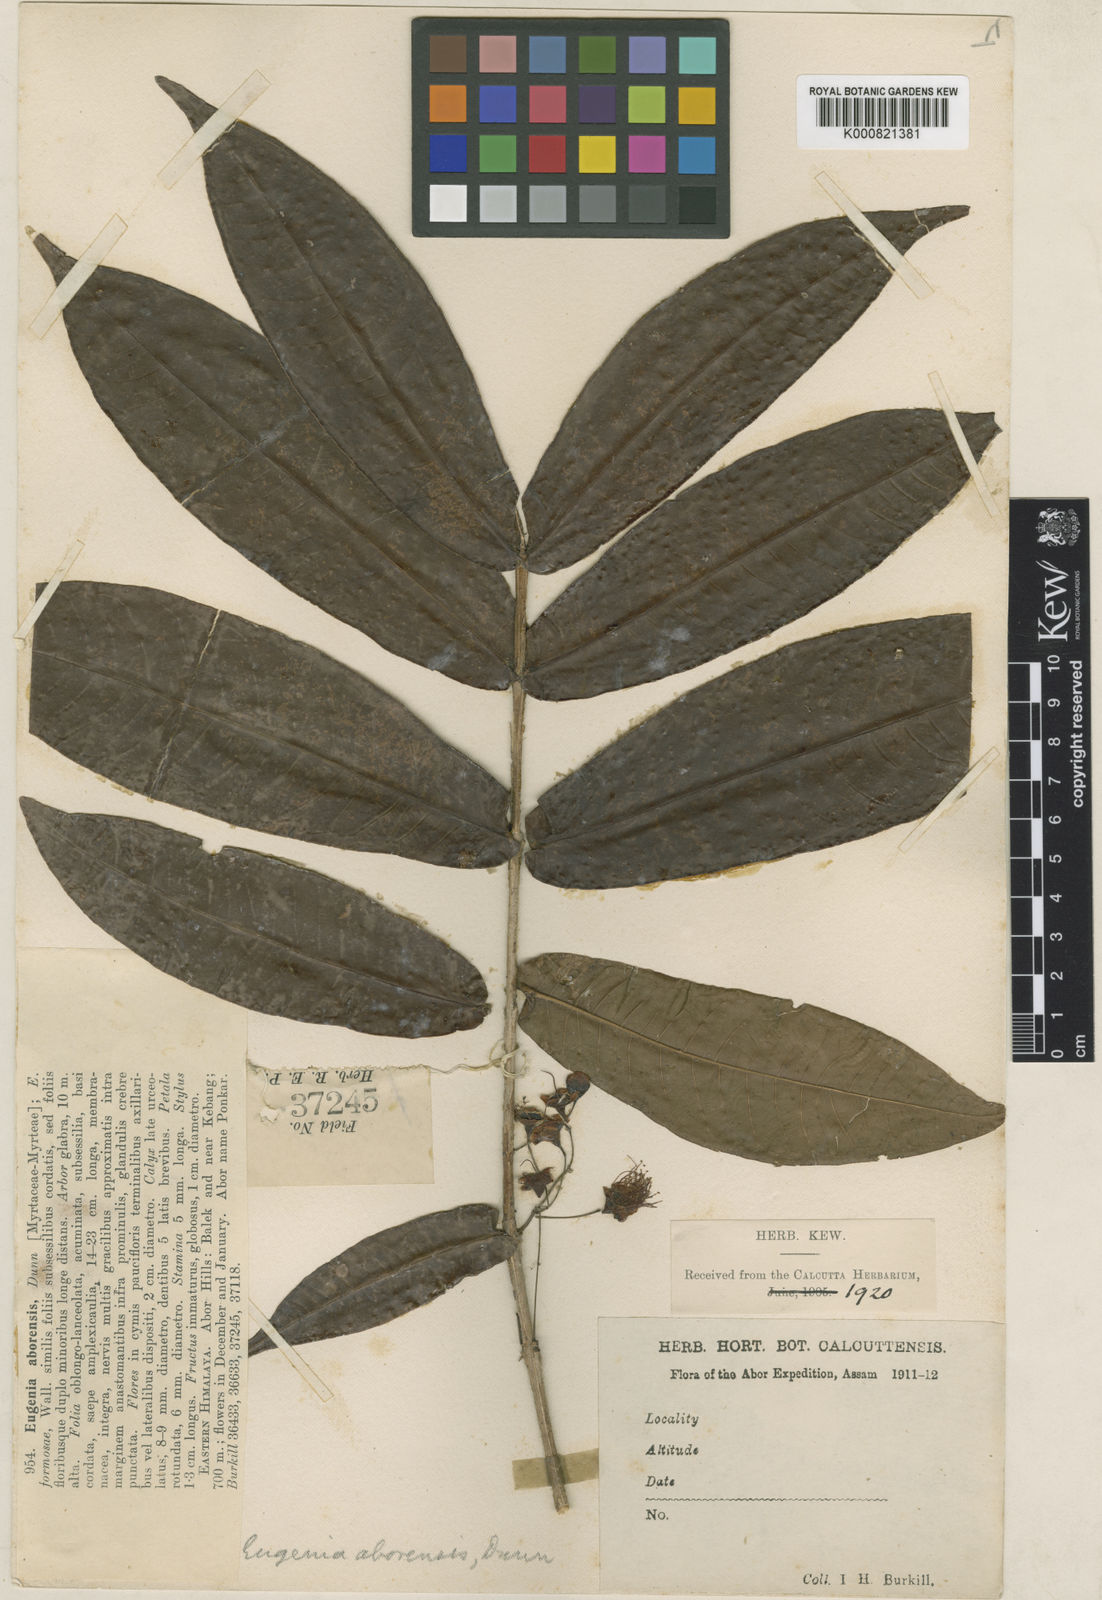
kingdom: Plantae
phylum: Tracheophyta
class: Magnoliopsida
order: Myrtales
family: Myrtaceae
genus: Syzygium
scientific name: Syzygium aborense
